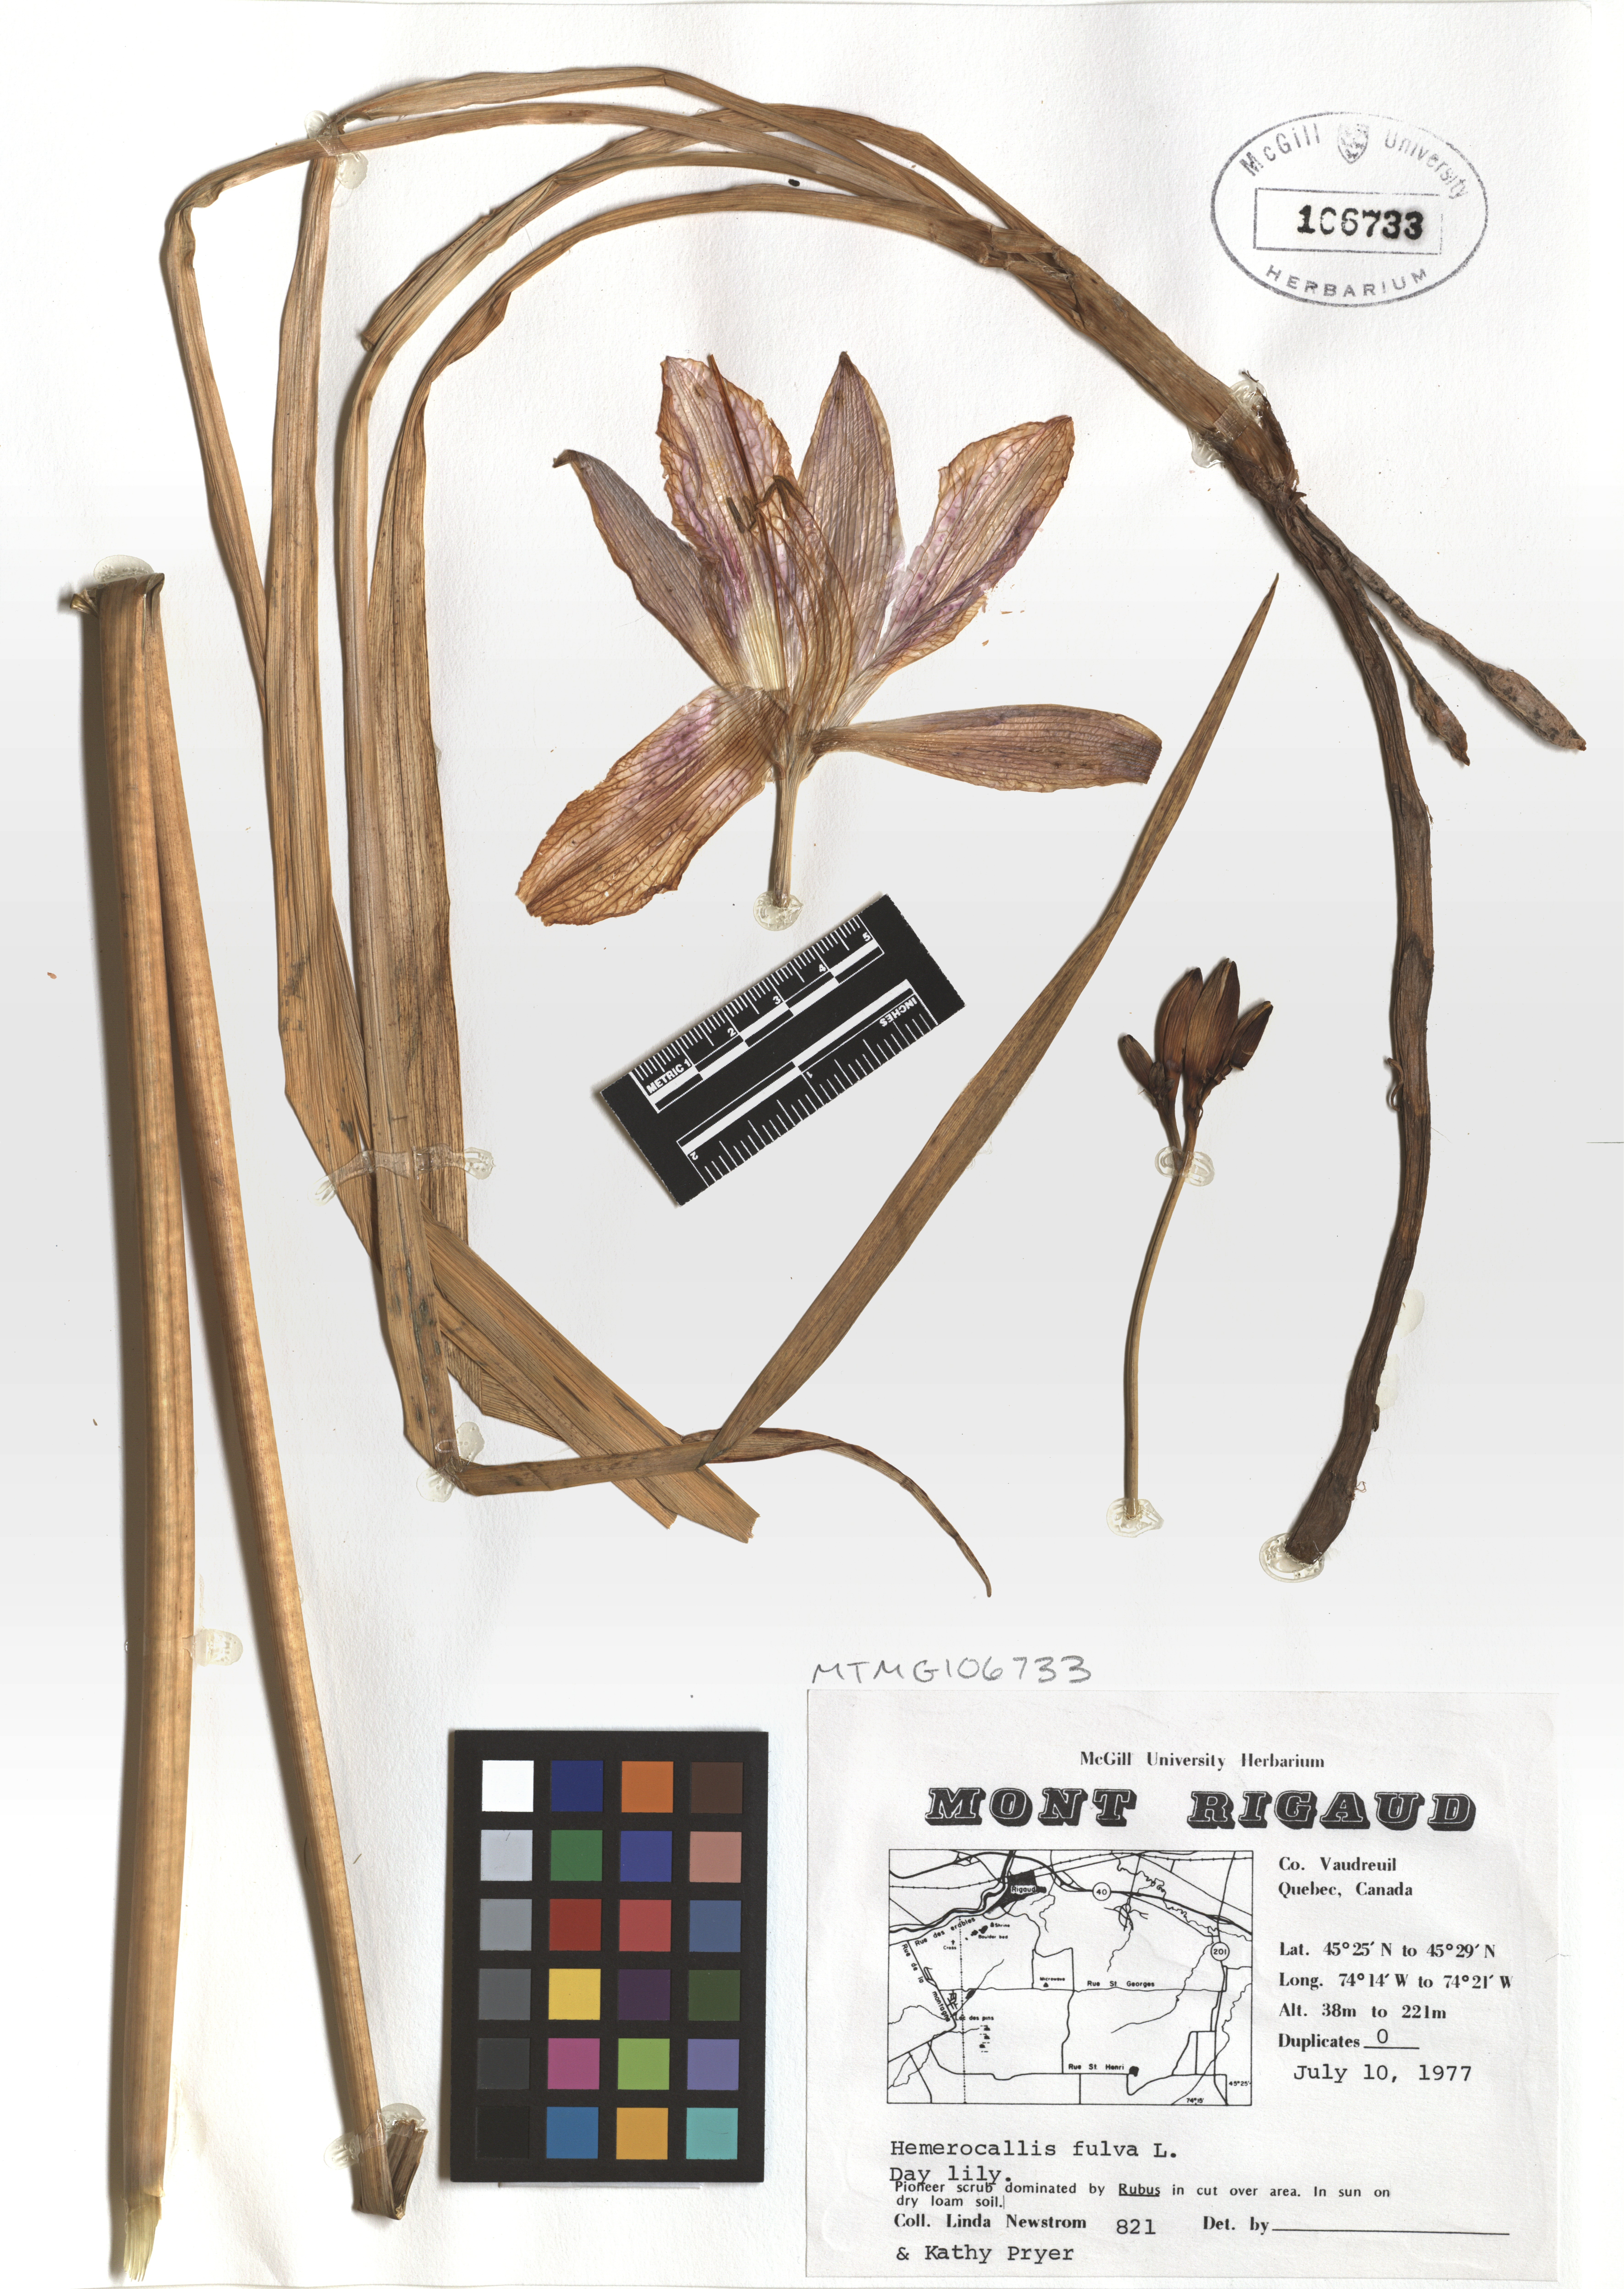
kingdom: Plantae
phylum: Tracheophyta
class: Liliopsida
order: Asparagales
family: Asphodelaceae
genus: Hemerocallis
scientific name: Hemerocallis fulva
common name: Orange day-lily
